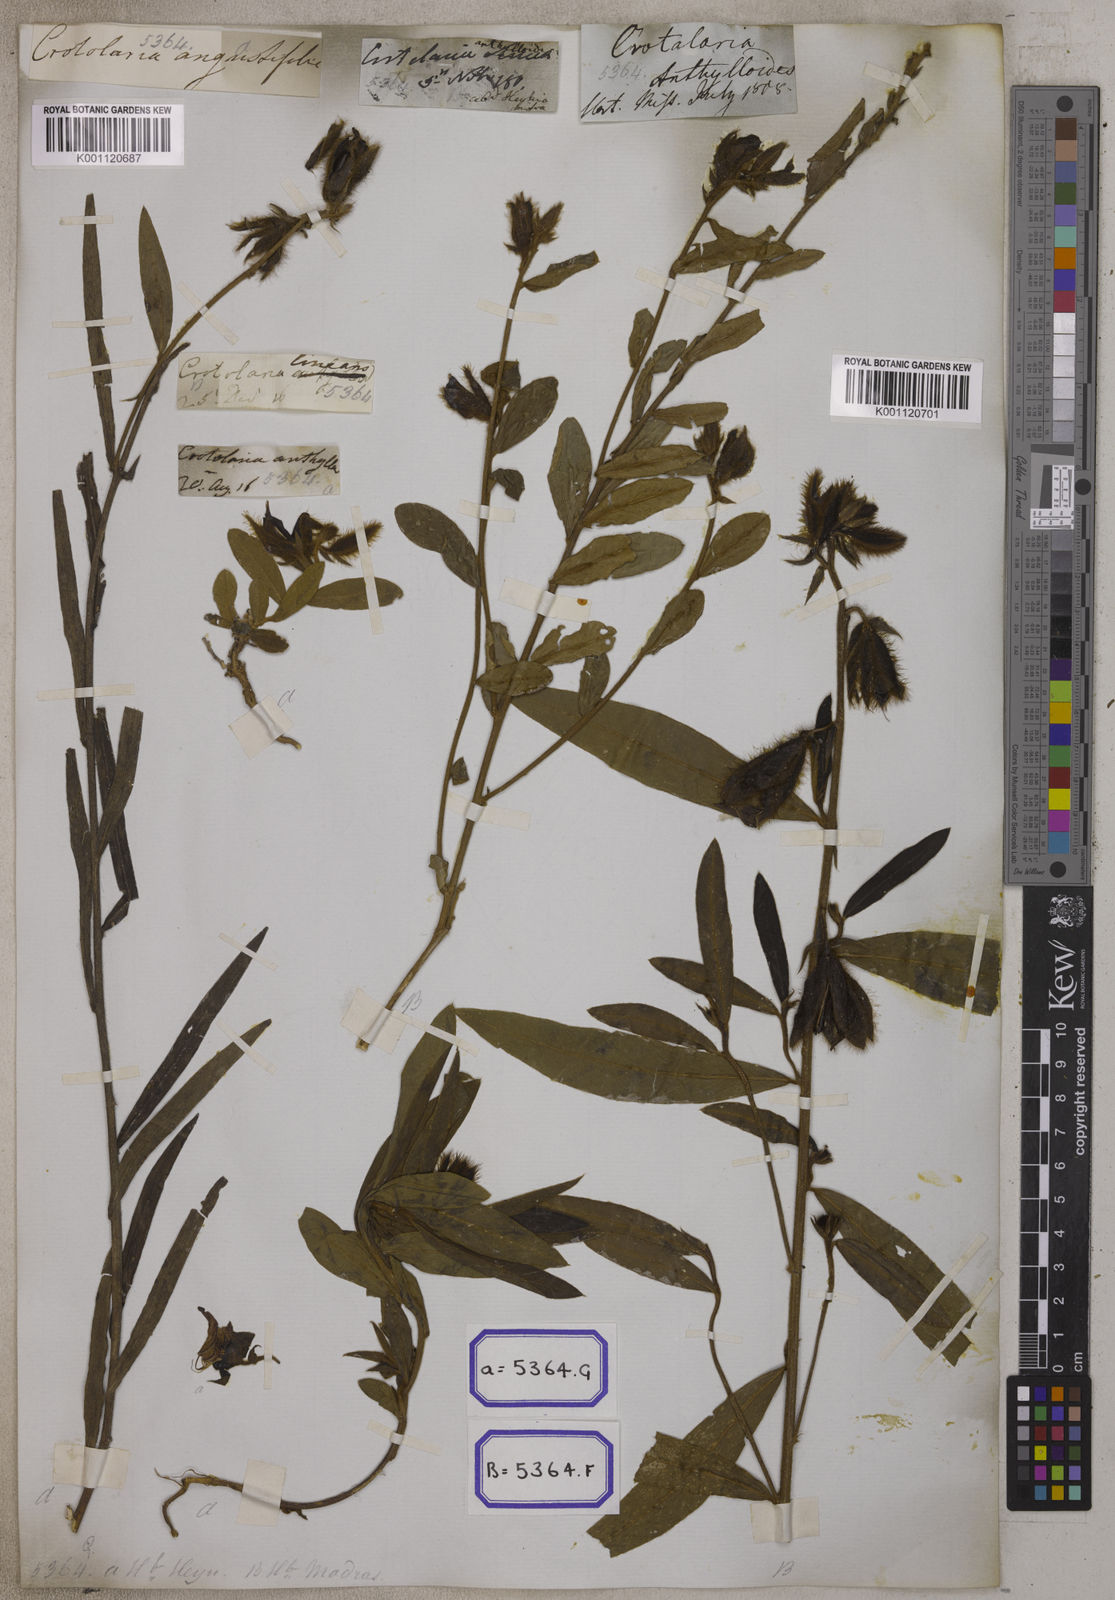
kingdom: Plantae
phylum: Tracheophyta
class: Magnoliopsida
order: Fabales
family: Fabaceae
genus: Crotalaria
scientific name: Crotalaria calycina
